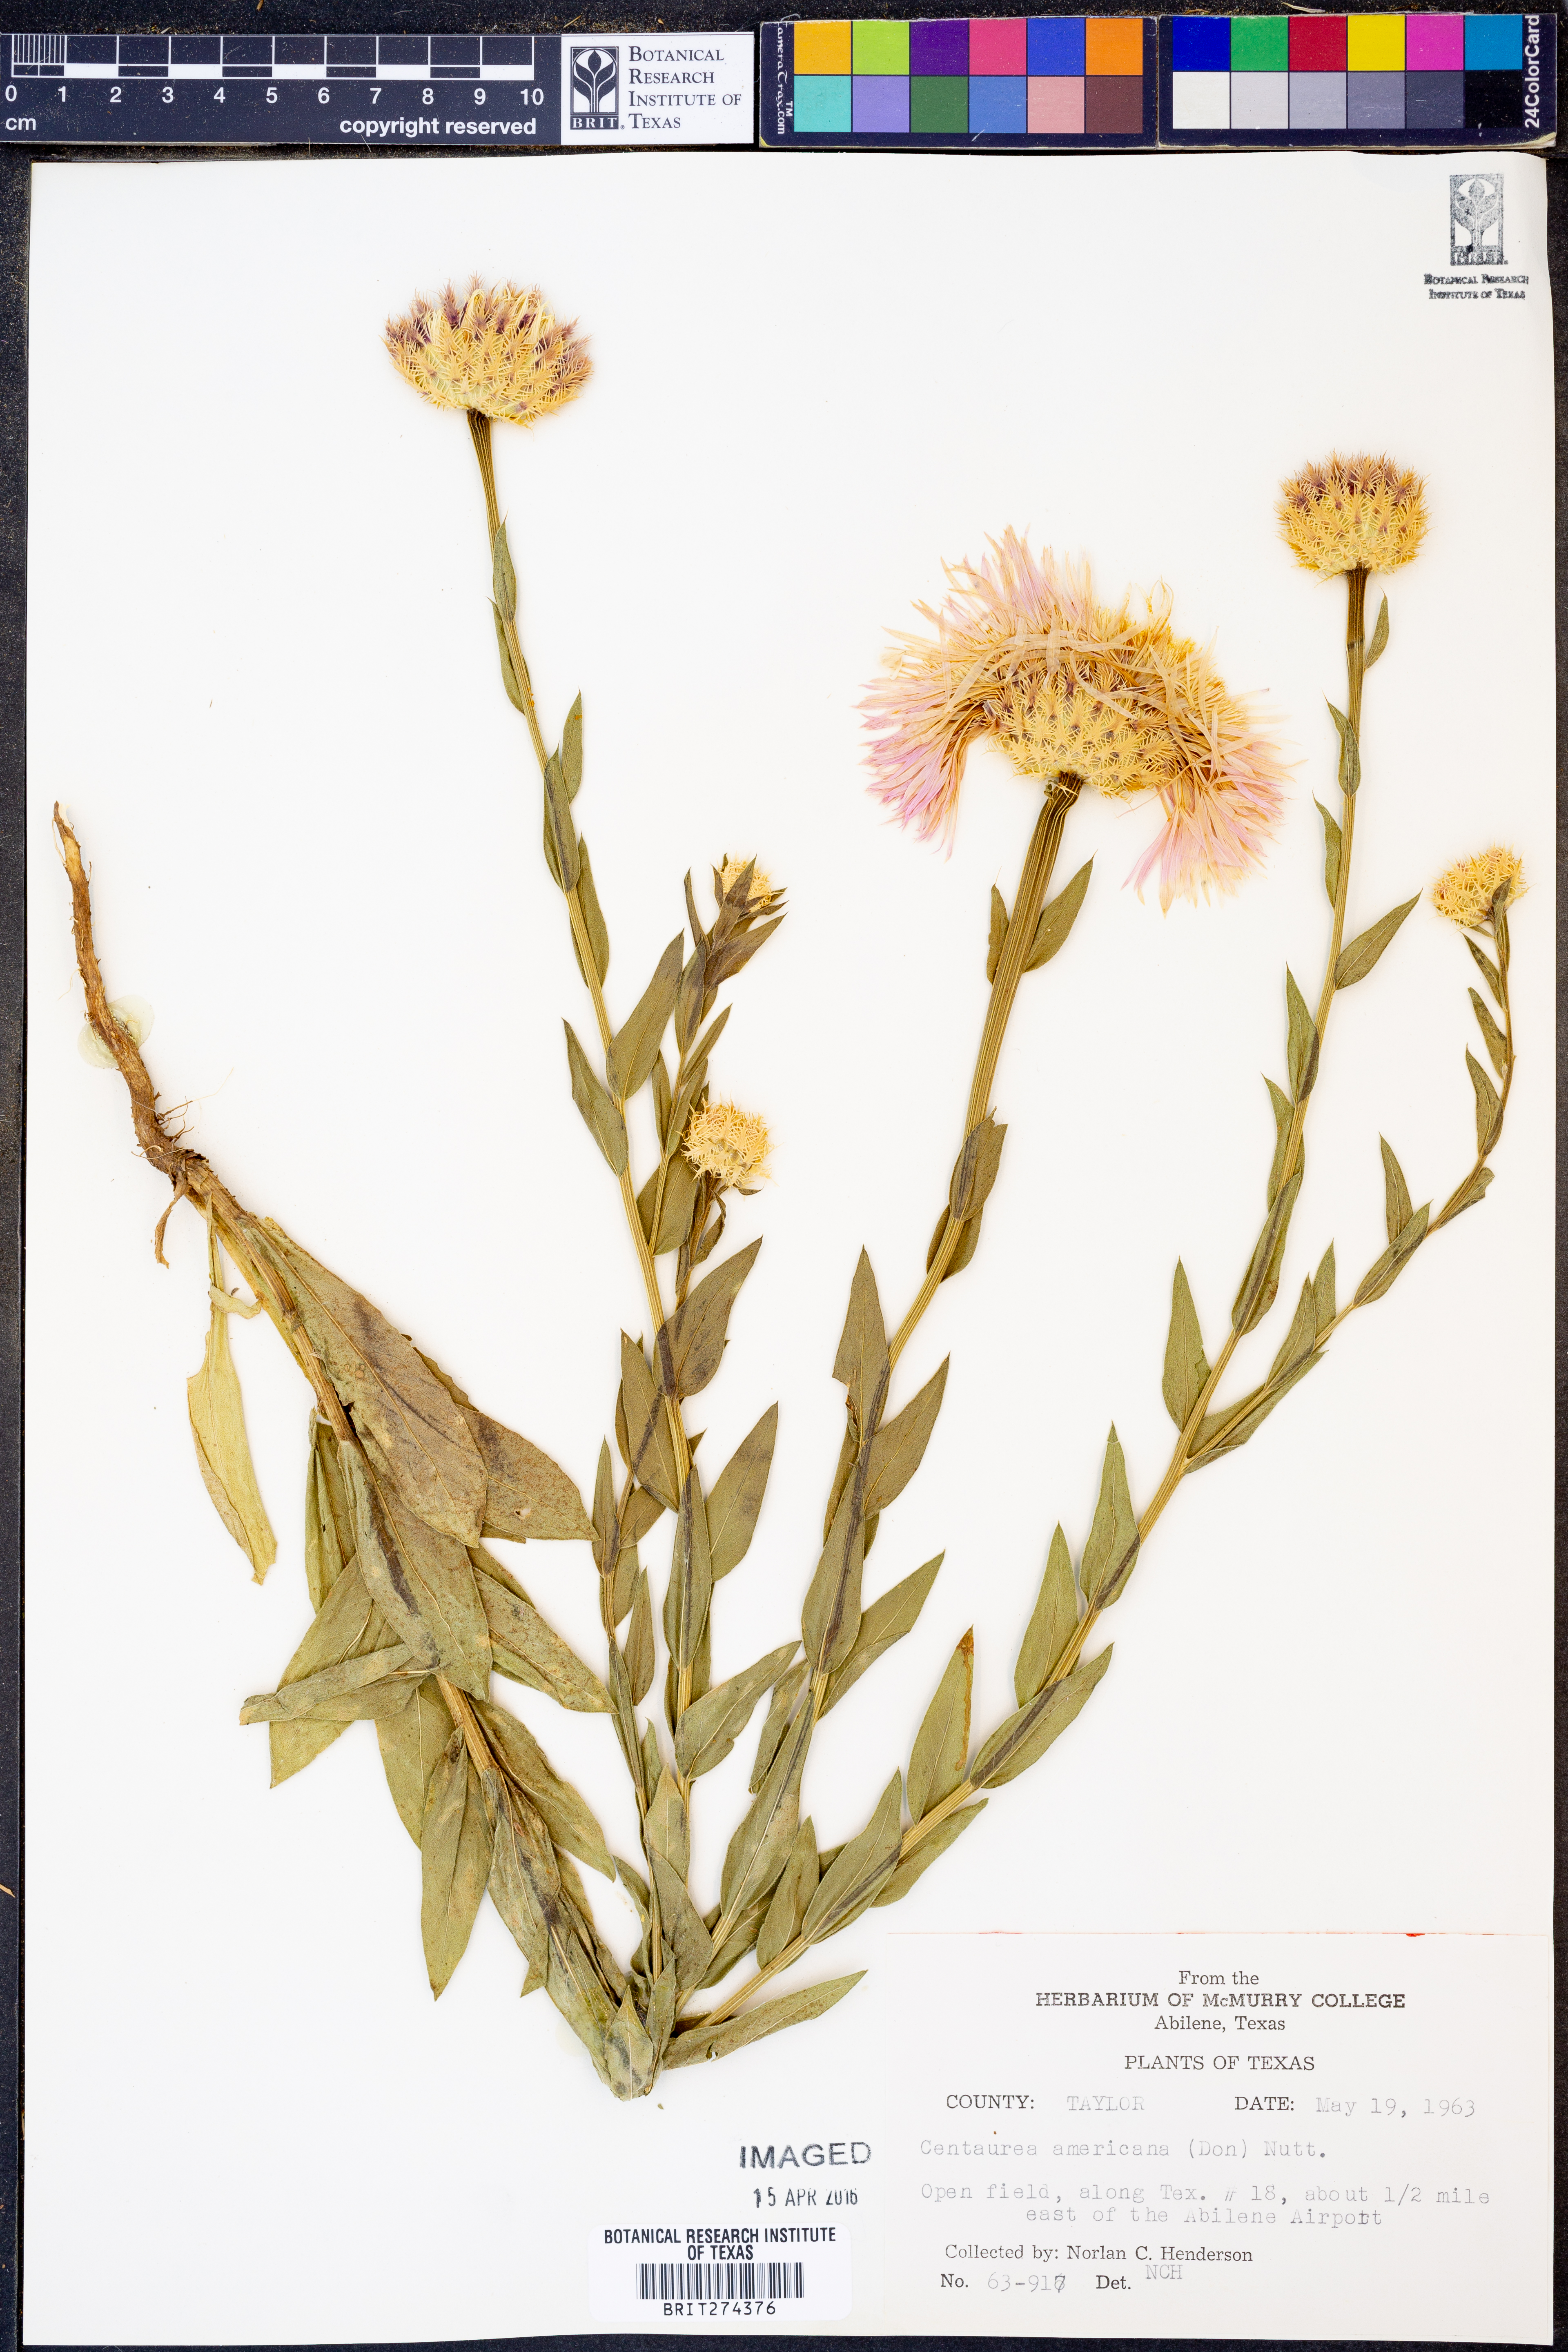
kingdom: Plantae
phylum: Tracheophyta
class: Magnoliopsida
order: Asterales
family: Asteraceae
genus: Plectocephalus
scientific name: Plectocephalus americanus
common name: American basket-flower
